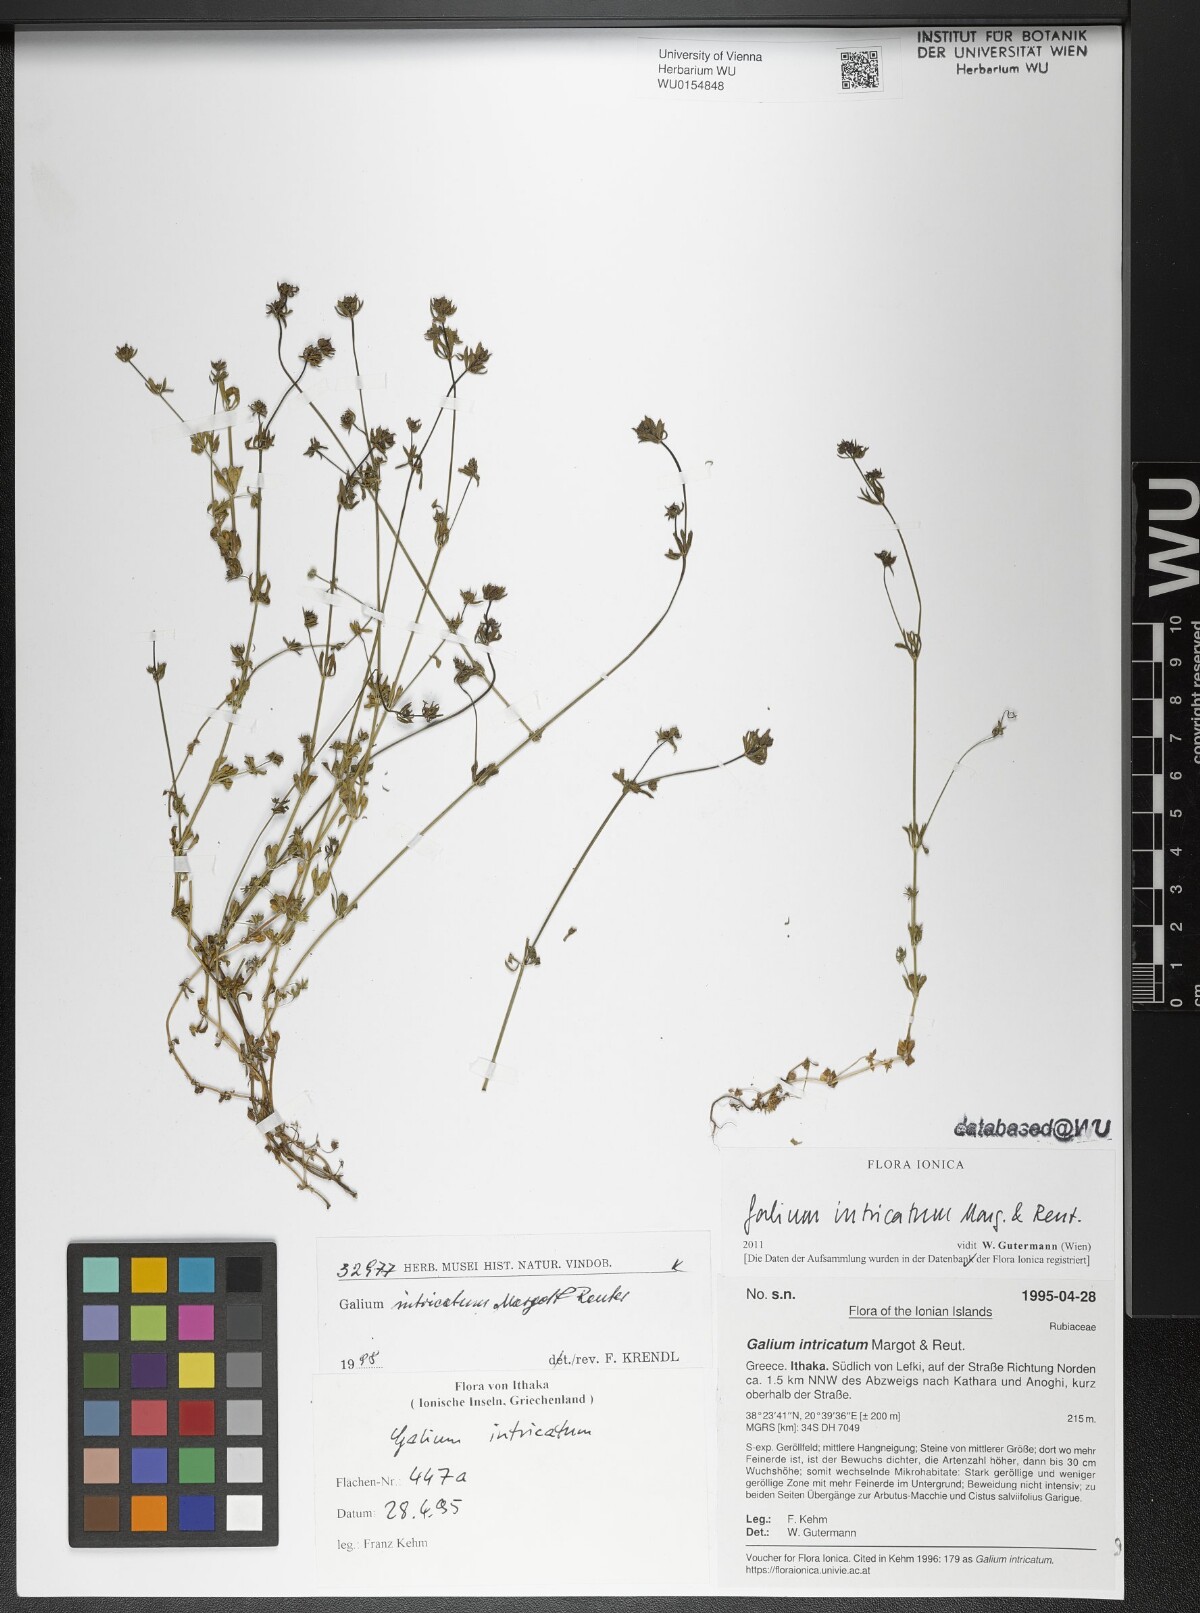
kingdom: Plantae
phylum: Tracheophyta
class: Magnoliopsida
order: Gentianales
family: Rubiaceae
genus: Galium
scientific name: Galium intricatum
